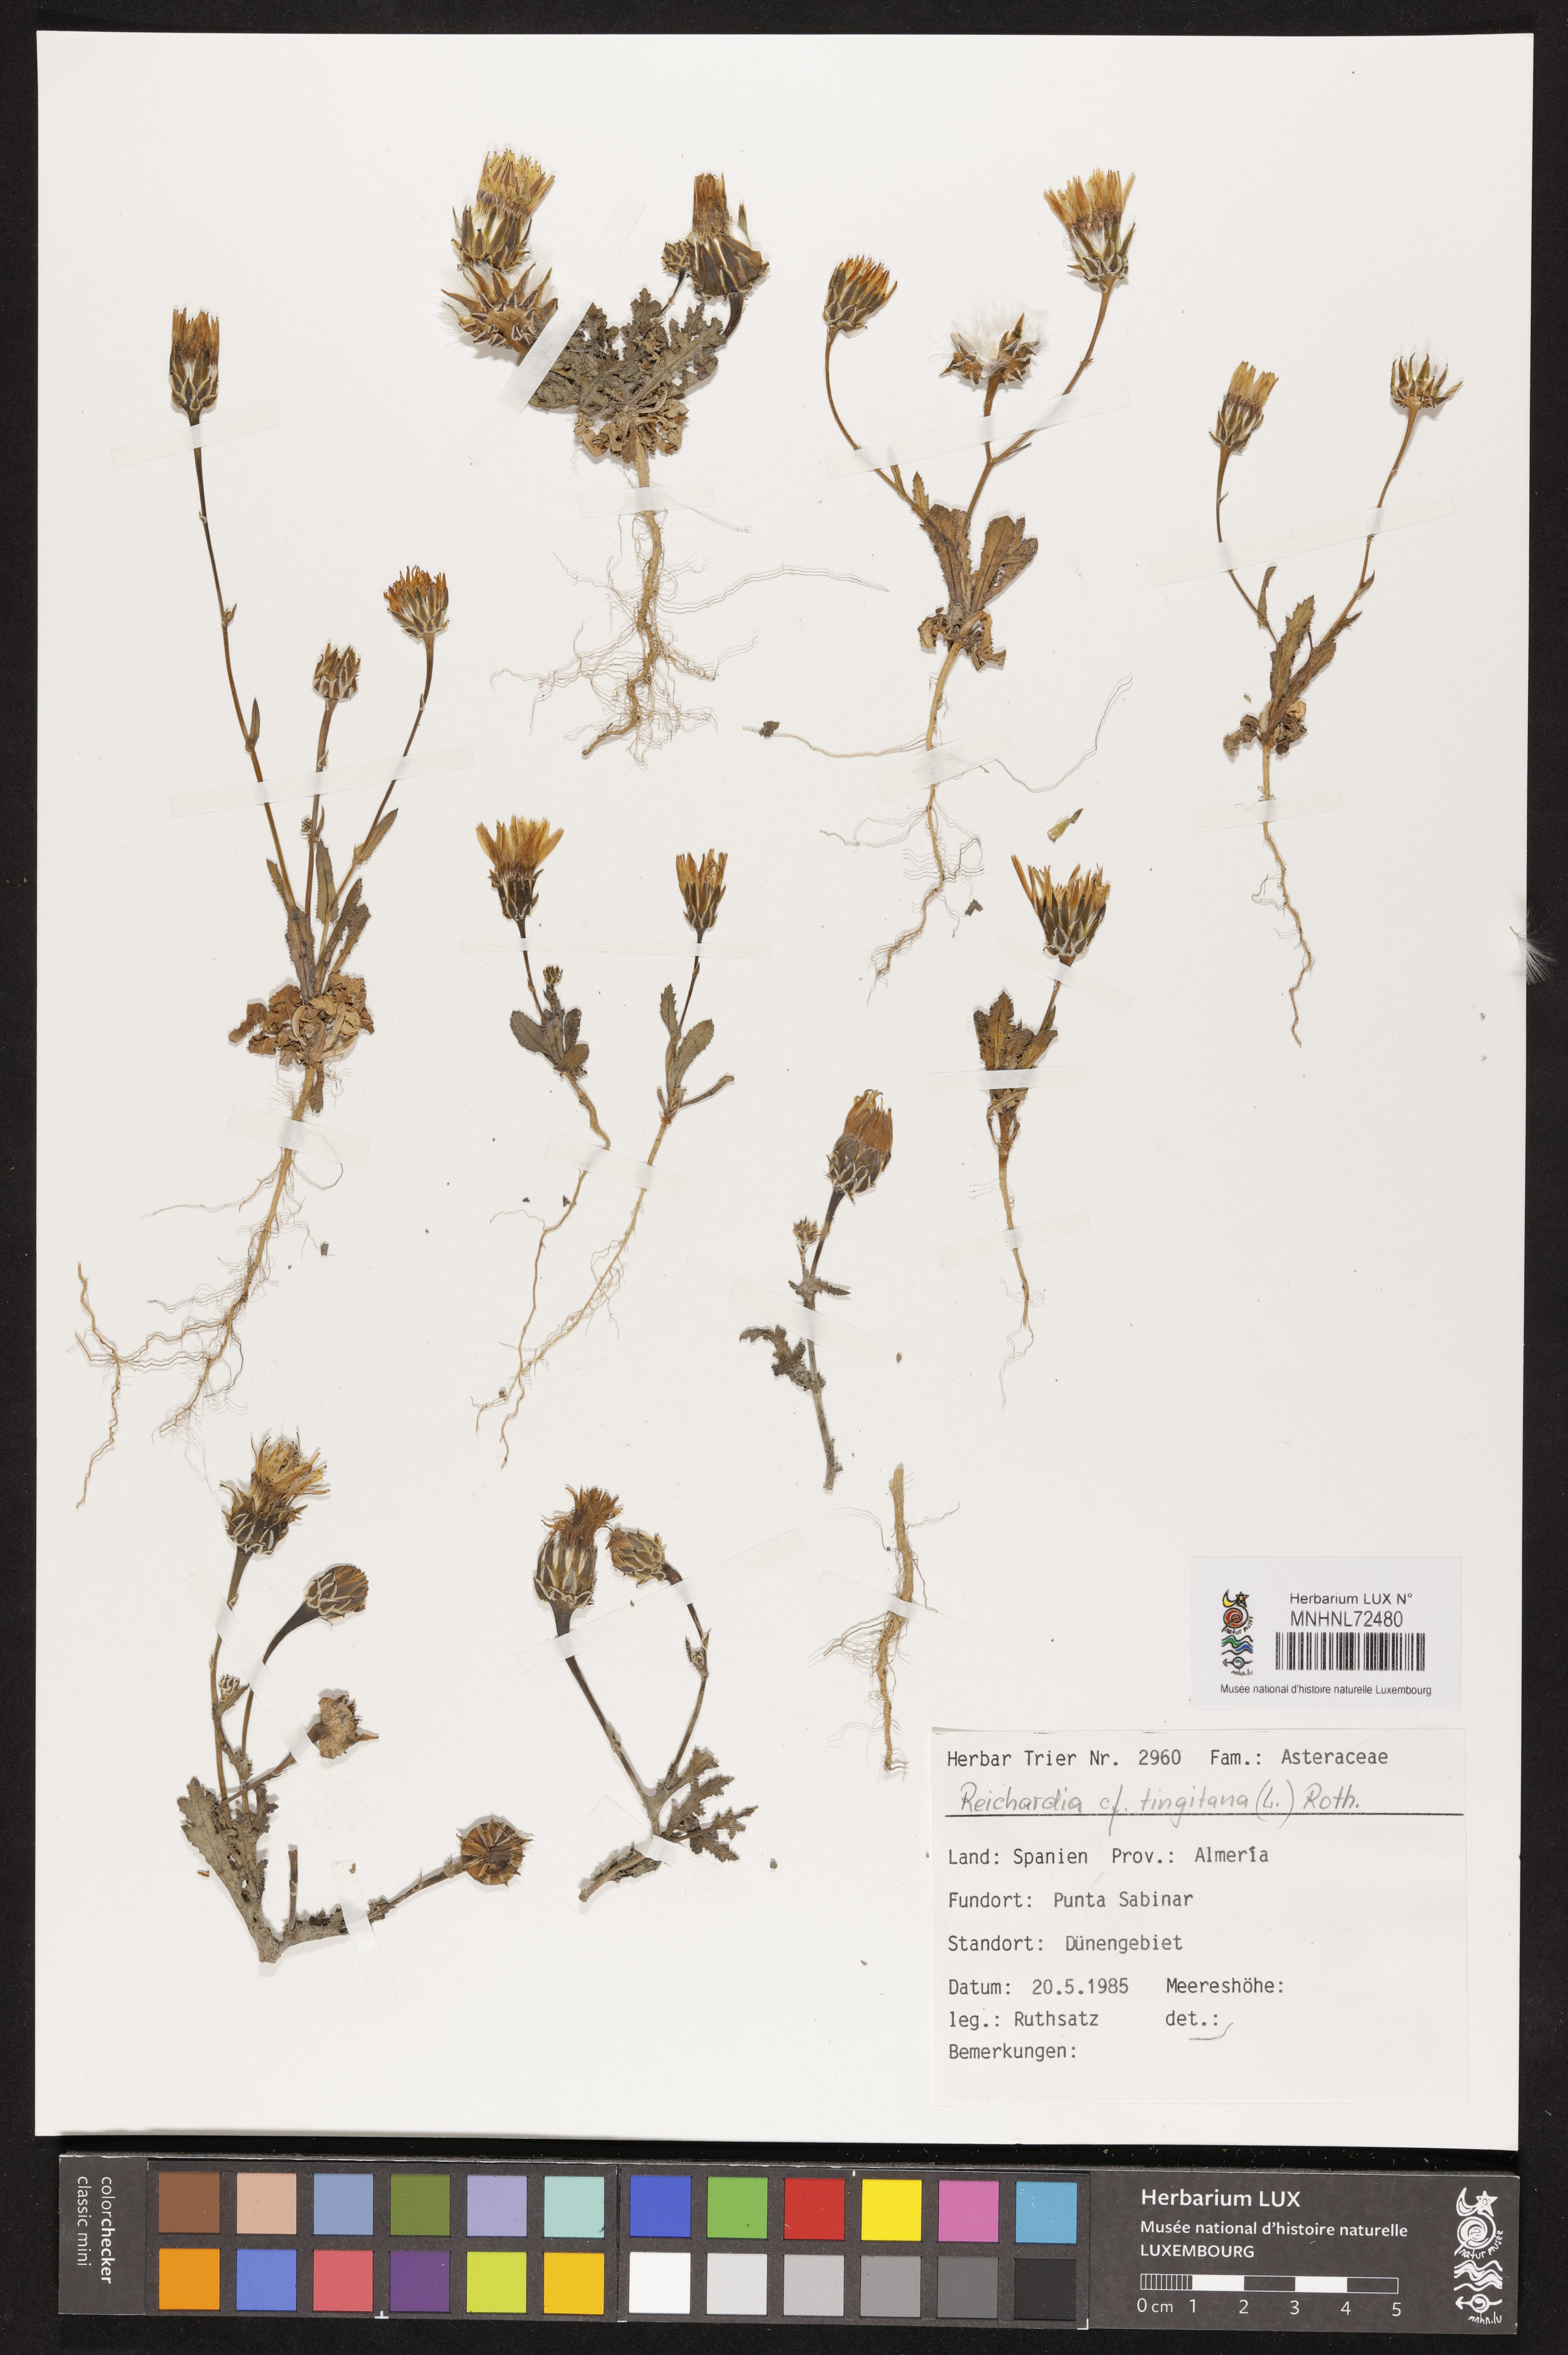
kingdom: Plantae
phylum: Tracheophyta
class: Magnoliopsida
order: Asterales
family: Asteraceae
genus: Reichardia
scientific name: Reichardia tingitana
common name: Reichardia
